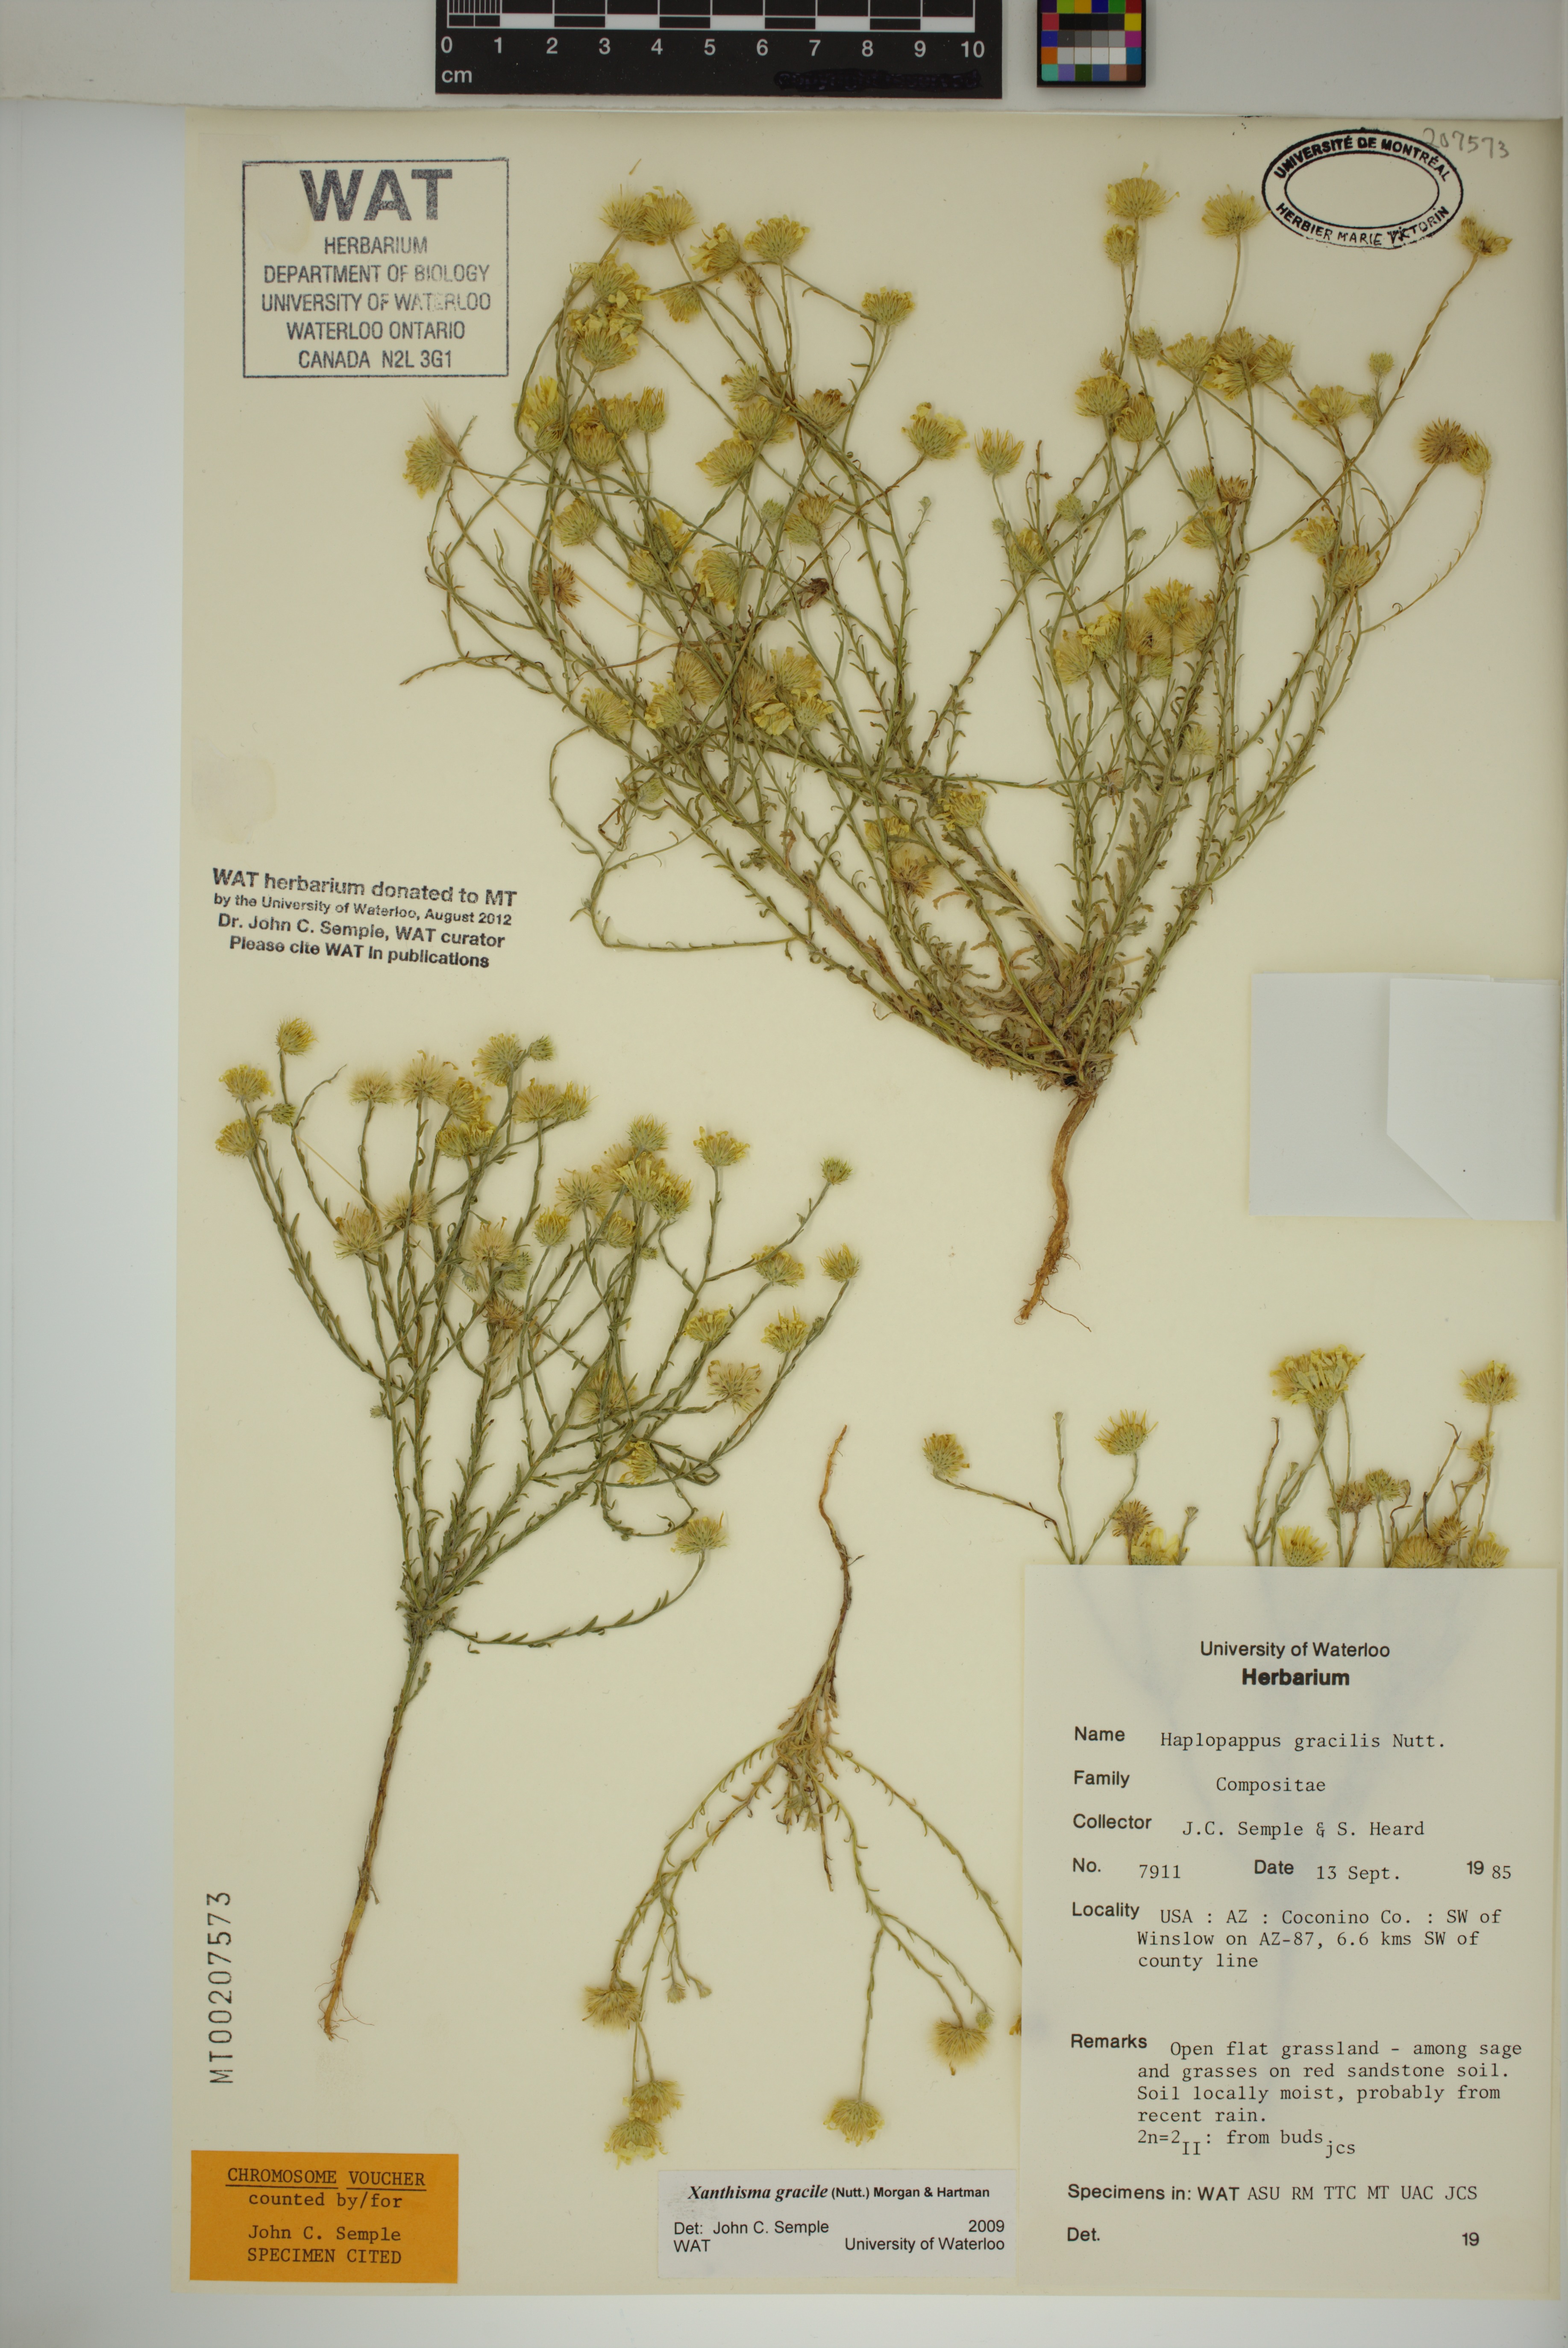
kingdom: Plantae
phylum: Tracheophyta
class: Magnoliopsida
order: Asterales
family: Asteraceae
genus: Xanthisma
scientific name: Xanthisma gracile
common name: Slender goldenweed
